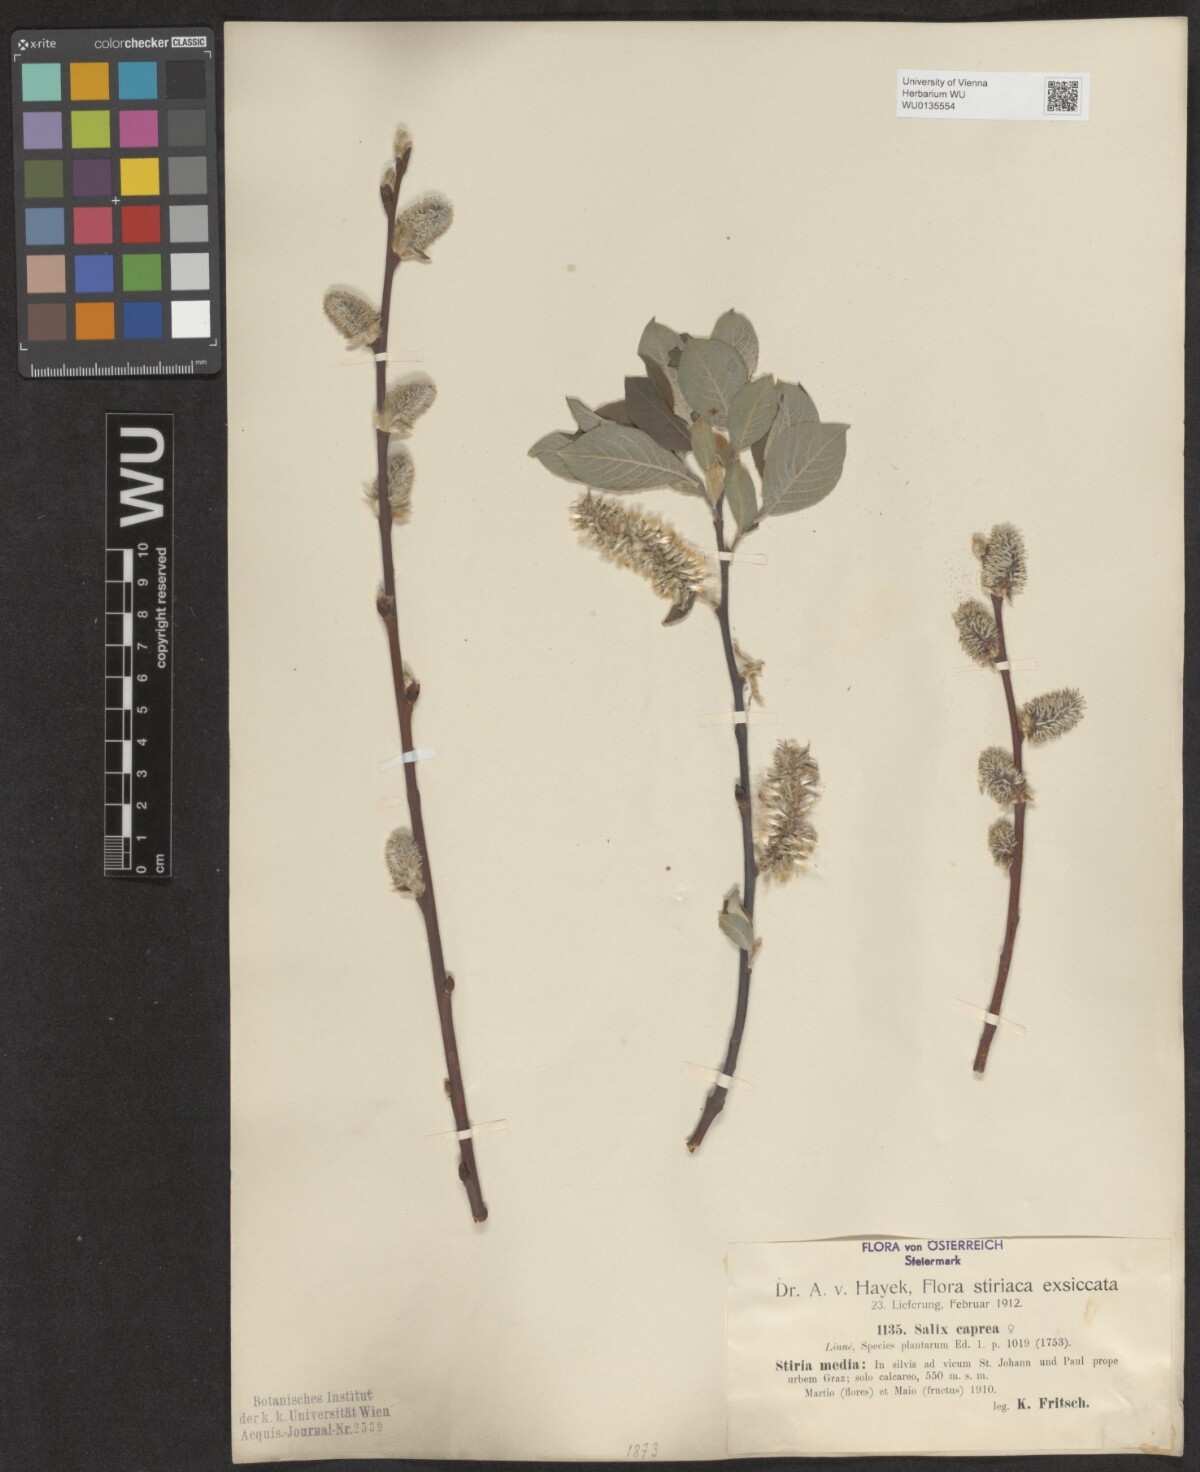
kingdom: Plantae
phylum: Tracheophyta
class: Magnoliopsida
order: Malpighiales
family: Salicaceae
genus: Salix
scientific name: Salix caprea
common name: Goat willow
